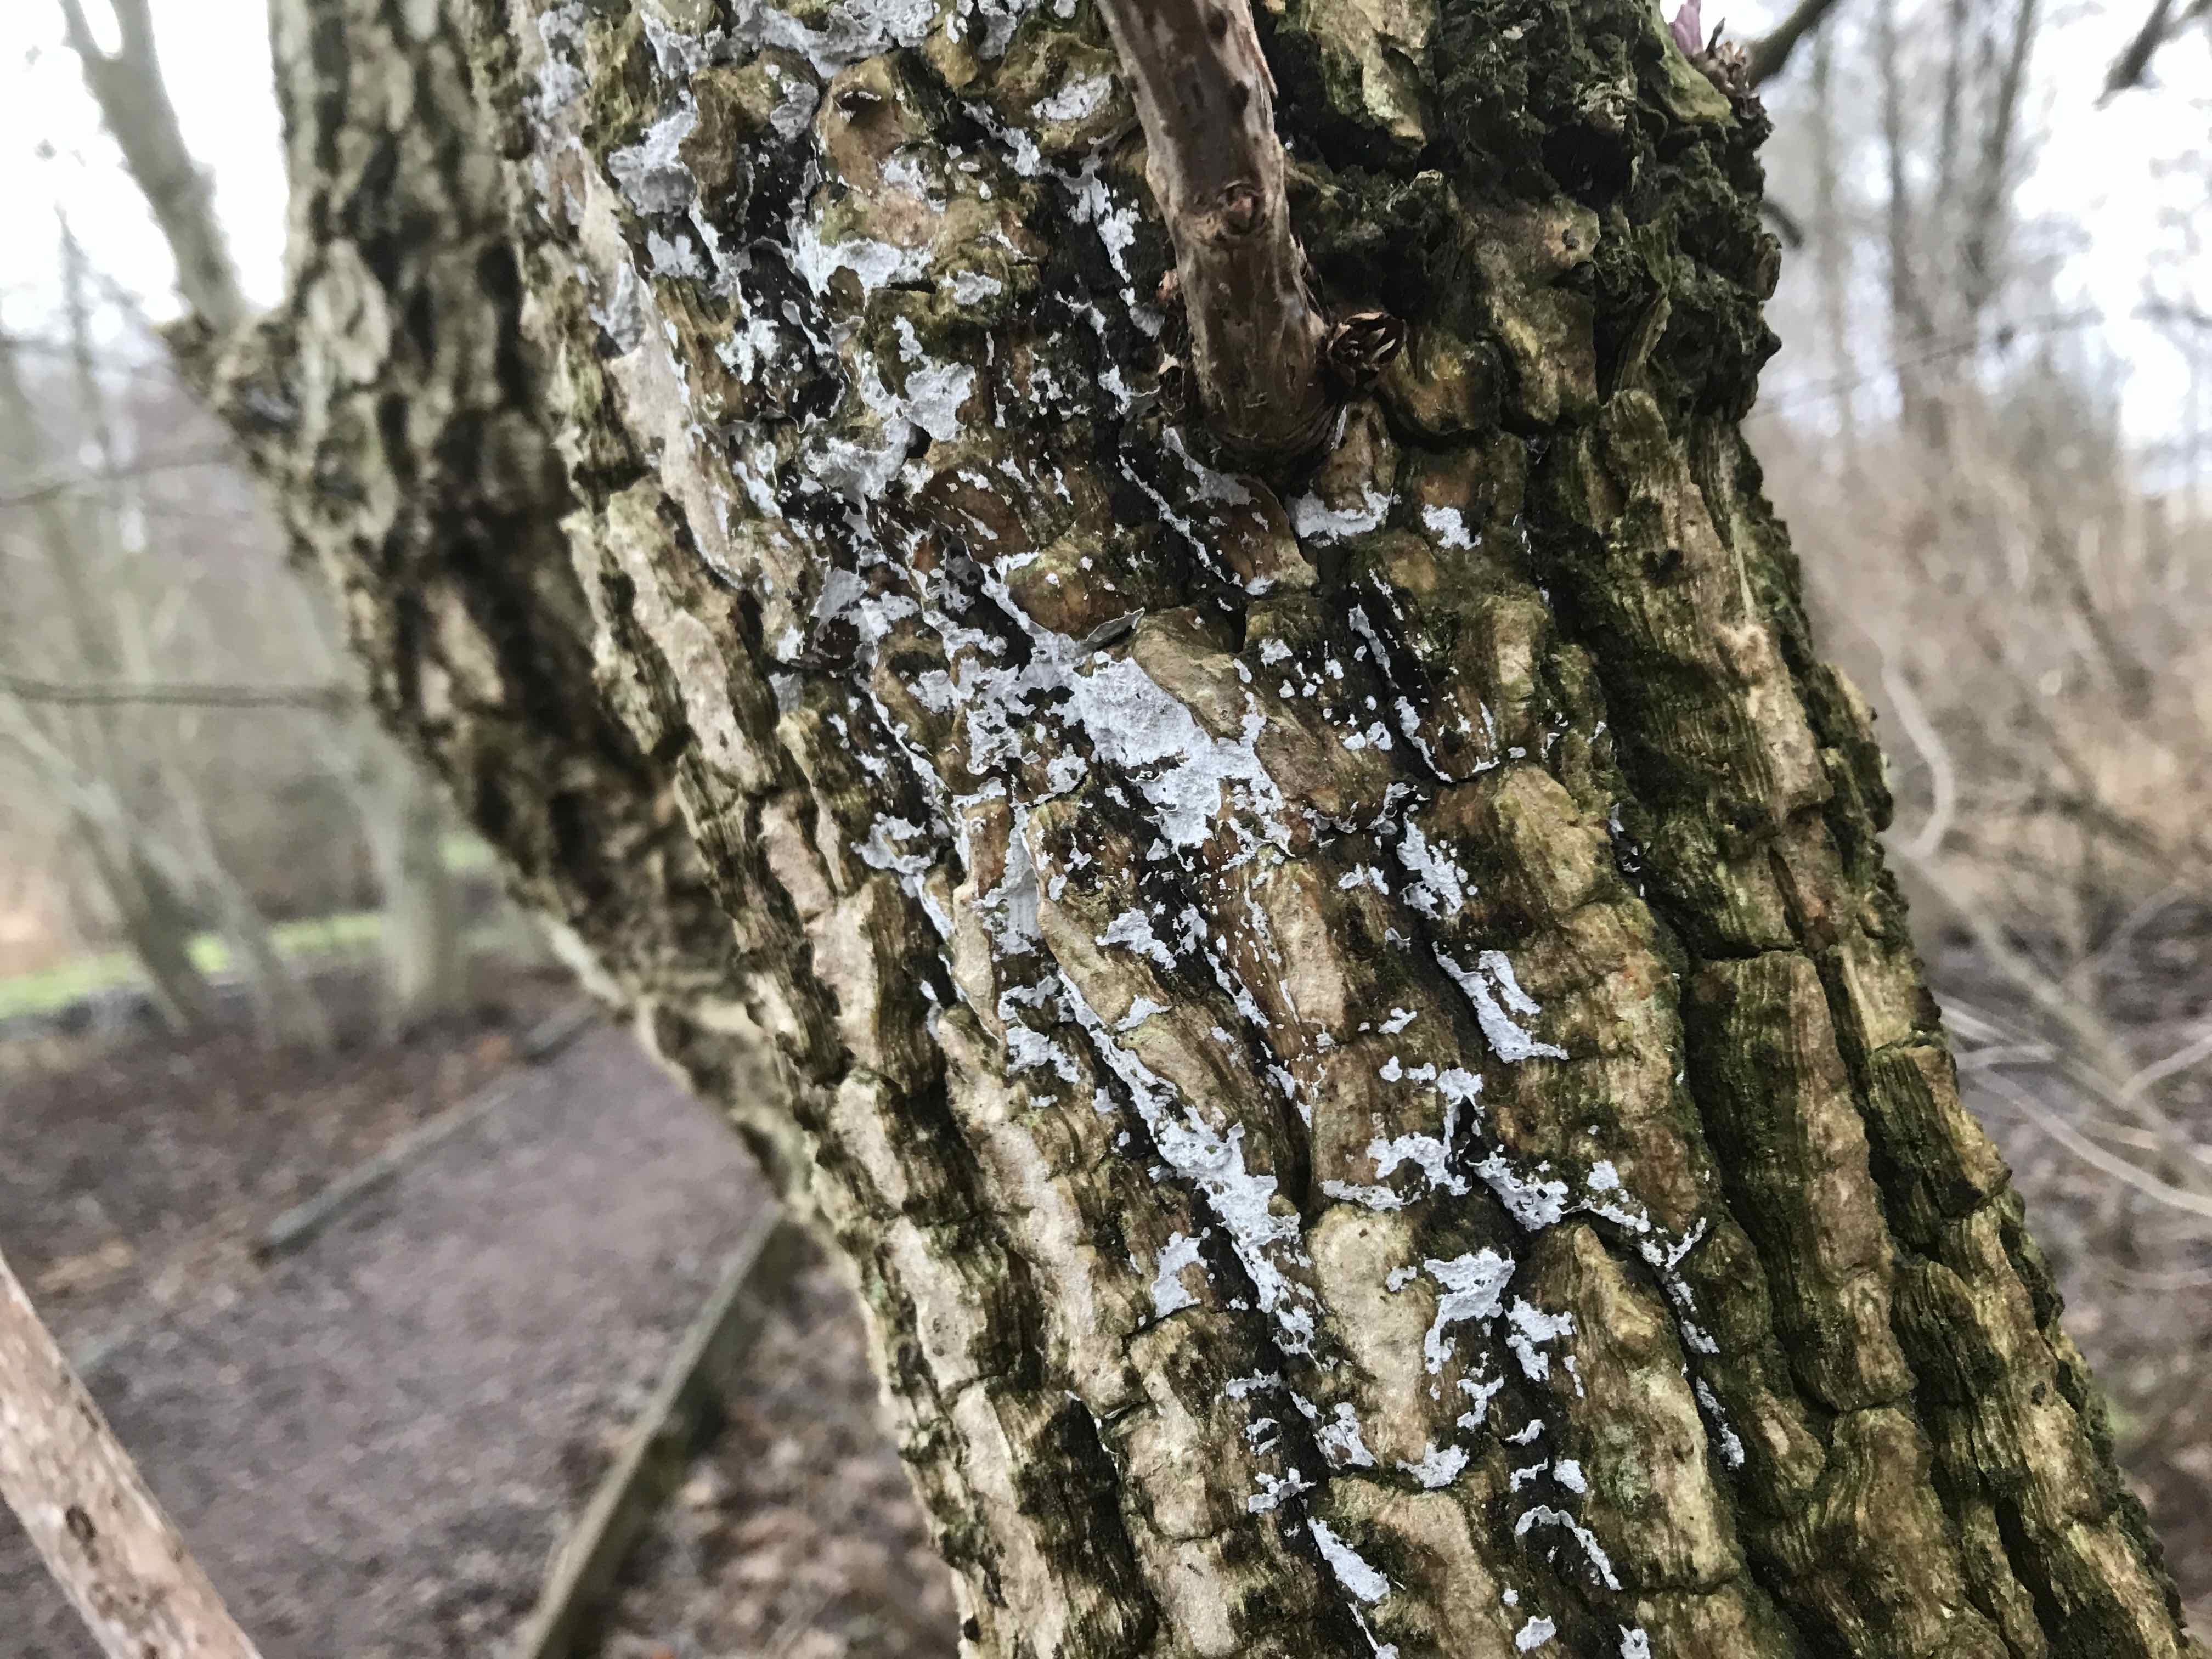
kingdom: Fungi
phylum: Basidiomycota
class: Agaricomycetes
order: Corticiales
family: Corticiaceae
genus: Lyomyces
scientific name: Lyomyces sambuci
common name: almindelig hyldehinde
